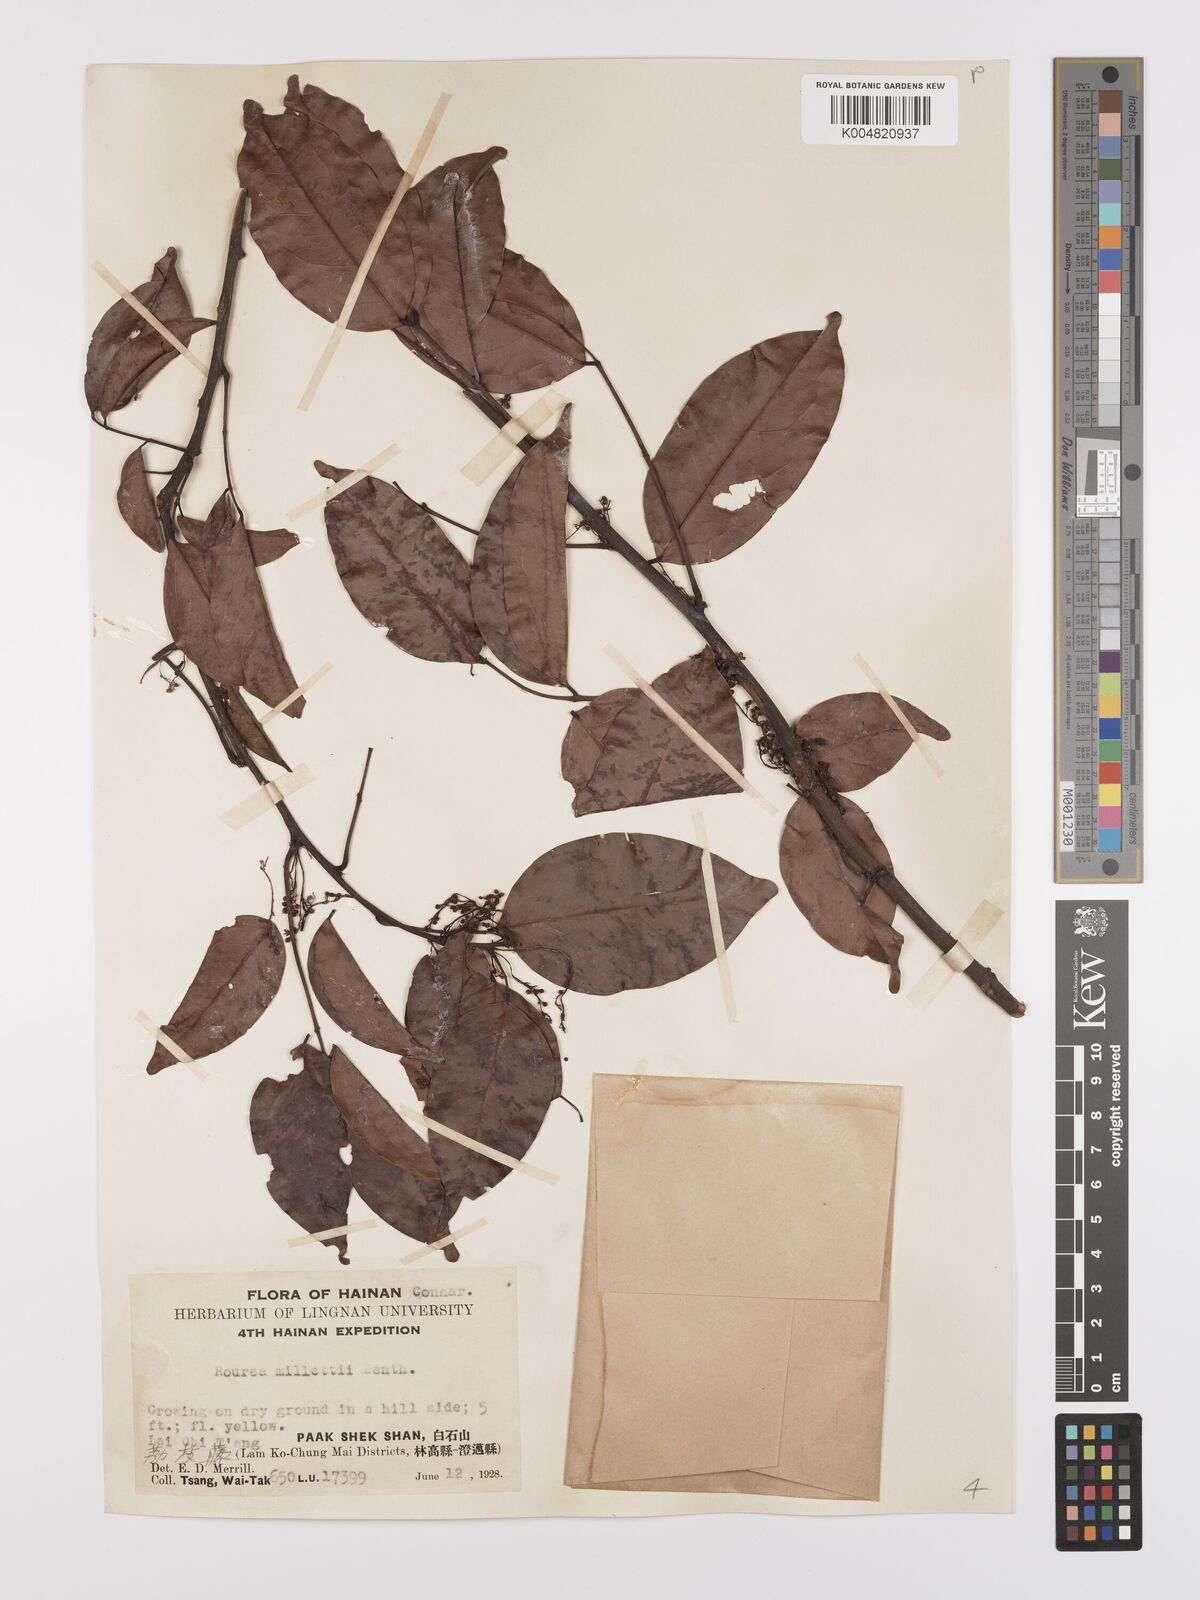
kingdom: Plantae
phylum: Tracheophyta
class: Magnoliopsida
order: Oxalidales
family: Connaraceae
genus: Rourea
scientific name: Rourea
